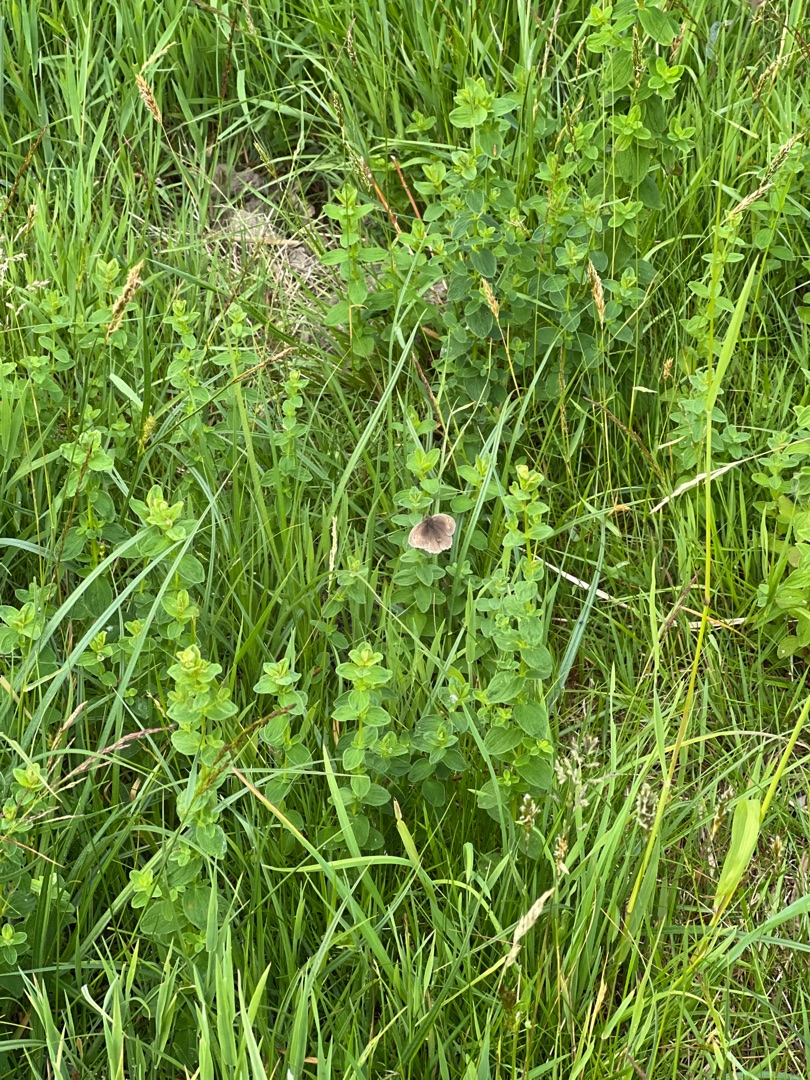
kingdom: Animalia
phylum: Arthropoda
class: Insecta
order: Lepidoptera
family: Nymphalidae
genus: Maniola
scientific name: Maniola jurtina
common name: Græsrandøje
